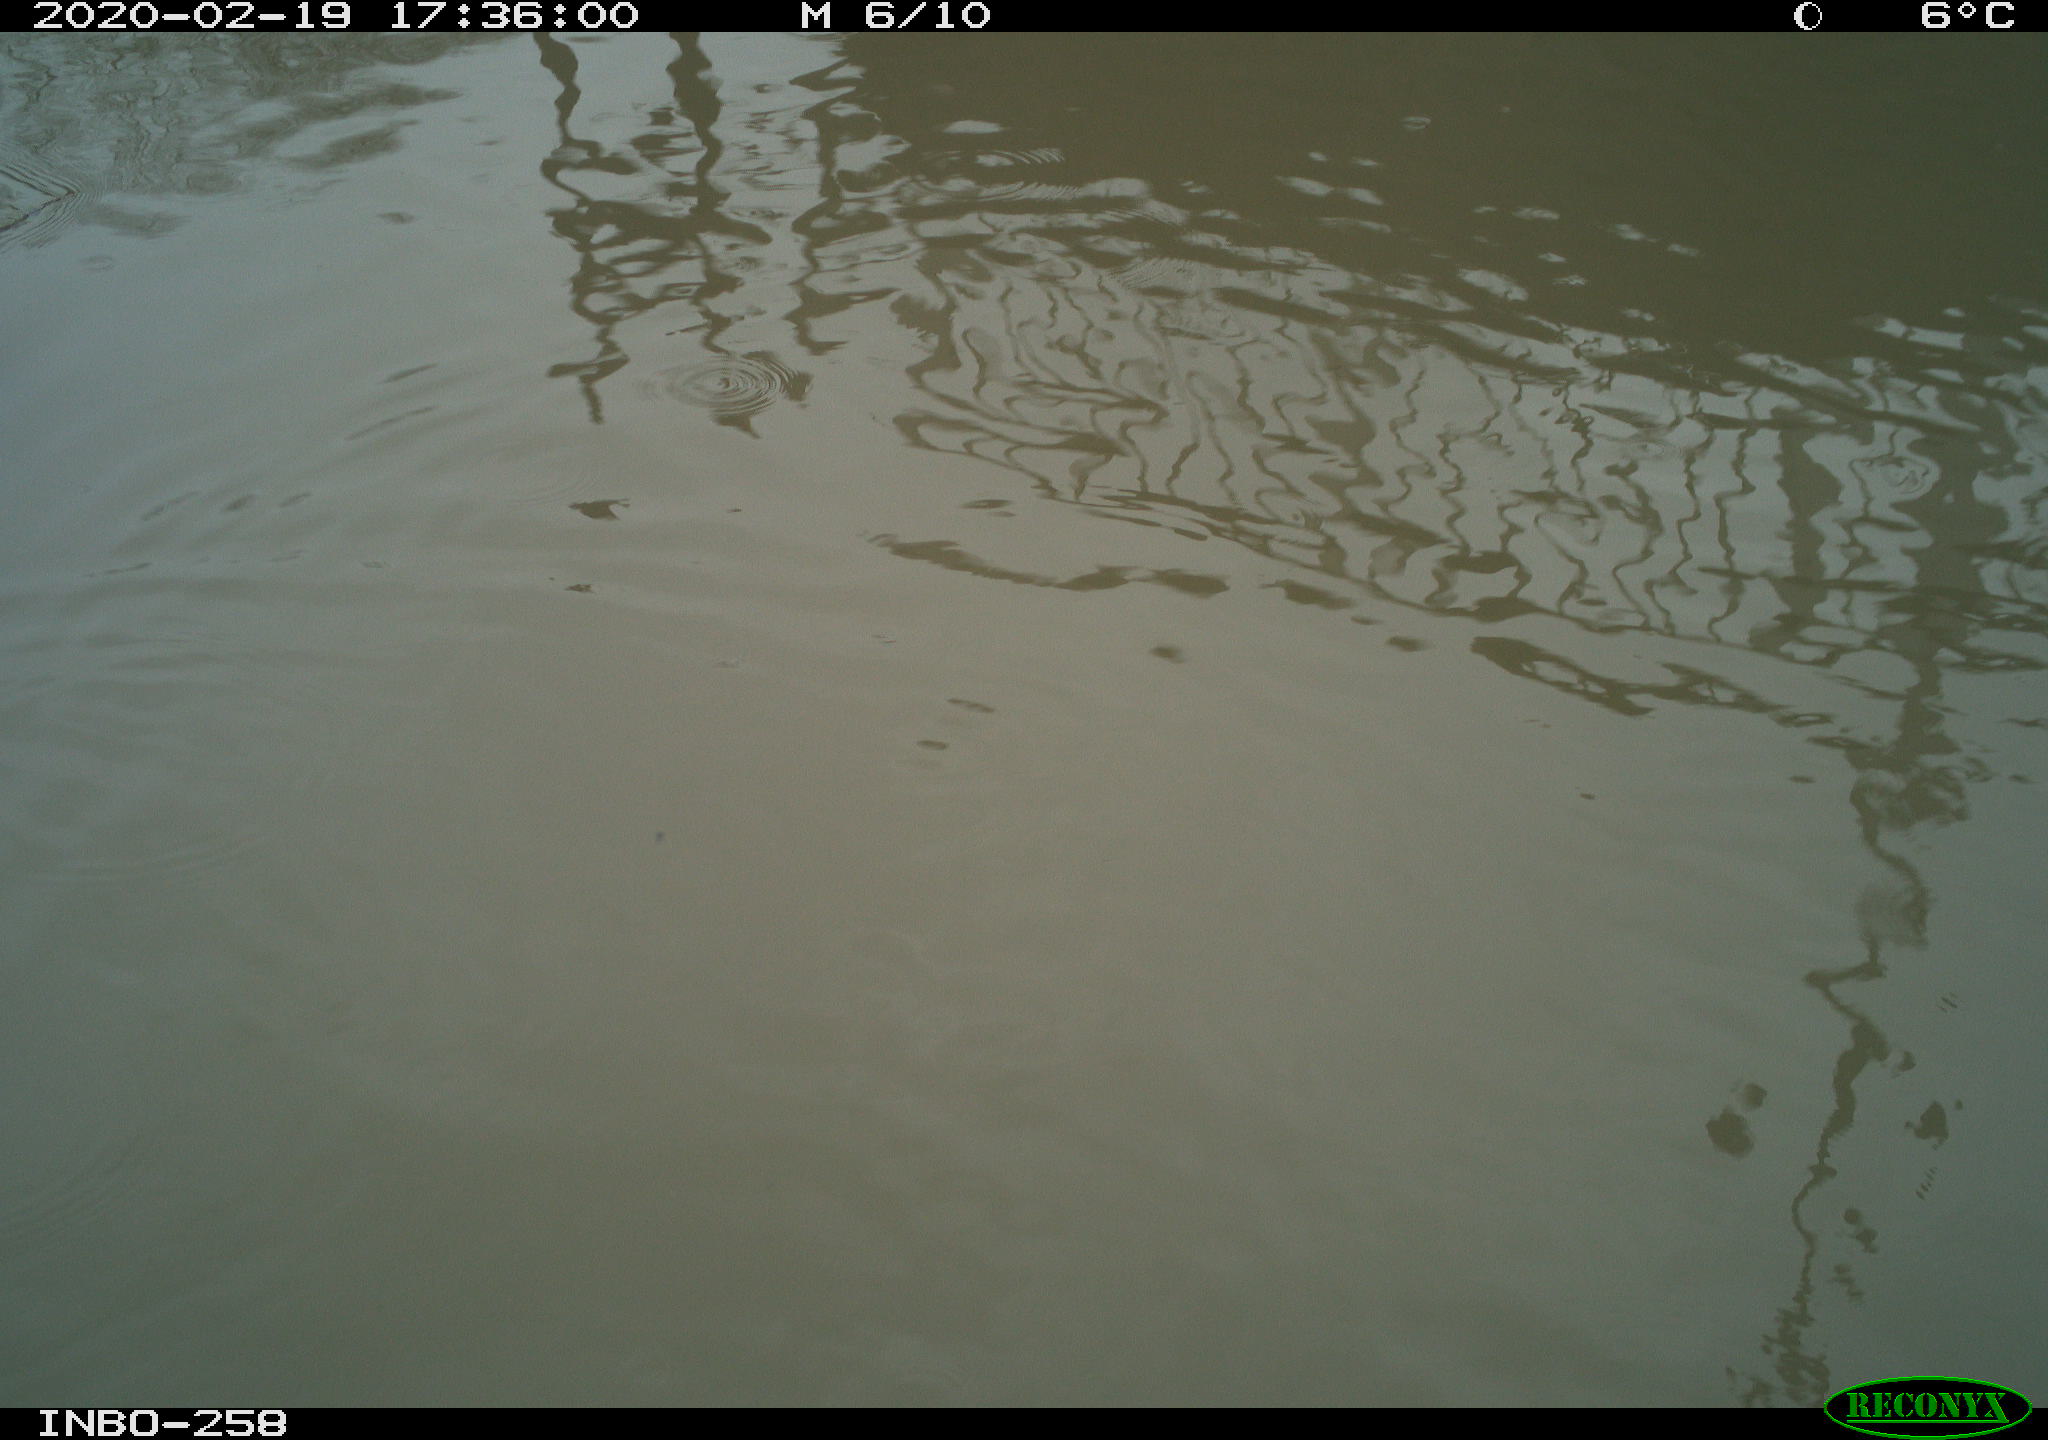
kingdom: Animalia
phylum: Chordata
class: Aves
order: Anseriformes
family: Anatidae
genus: Anas
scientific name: Anas platyrhynchos
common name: Mallard
